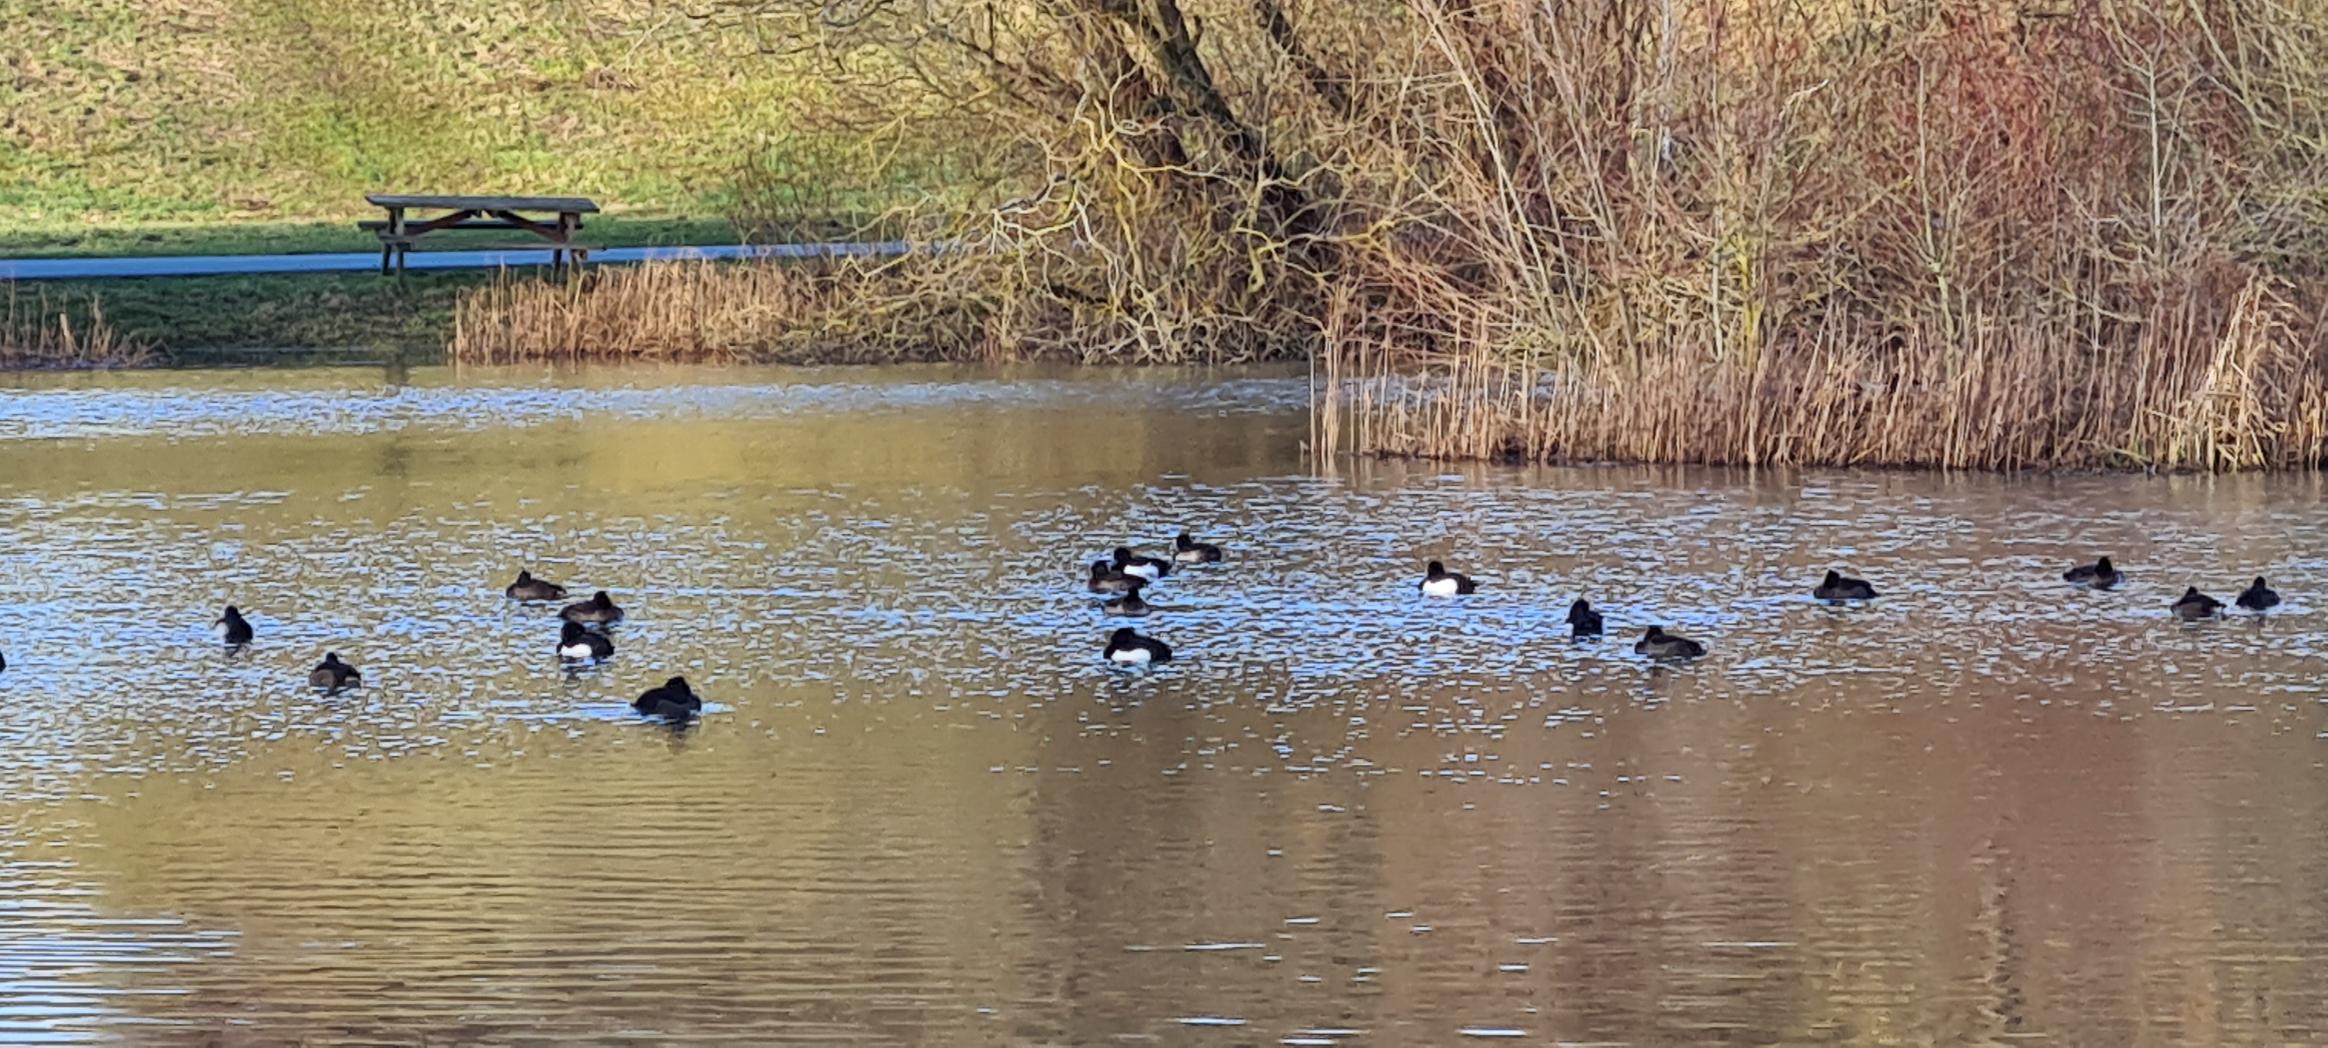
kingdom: Animalia
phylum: Chordata
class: Aves
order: Anseriformes
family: Anatidae
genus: Aythya
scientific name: Aythya fuligula
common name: Troldand
